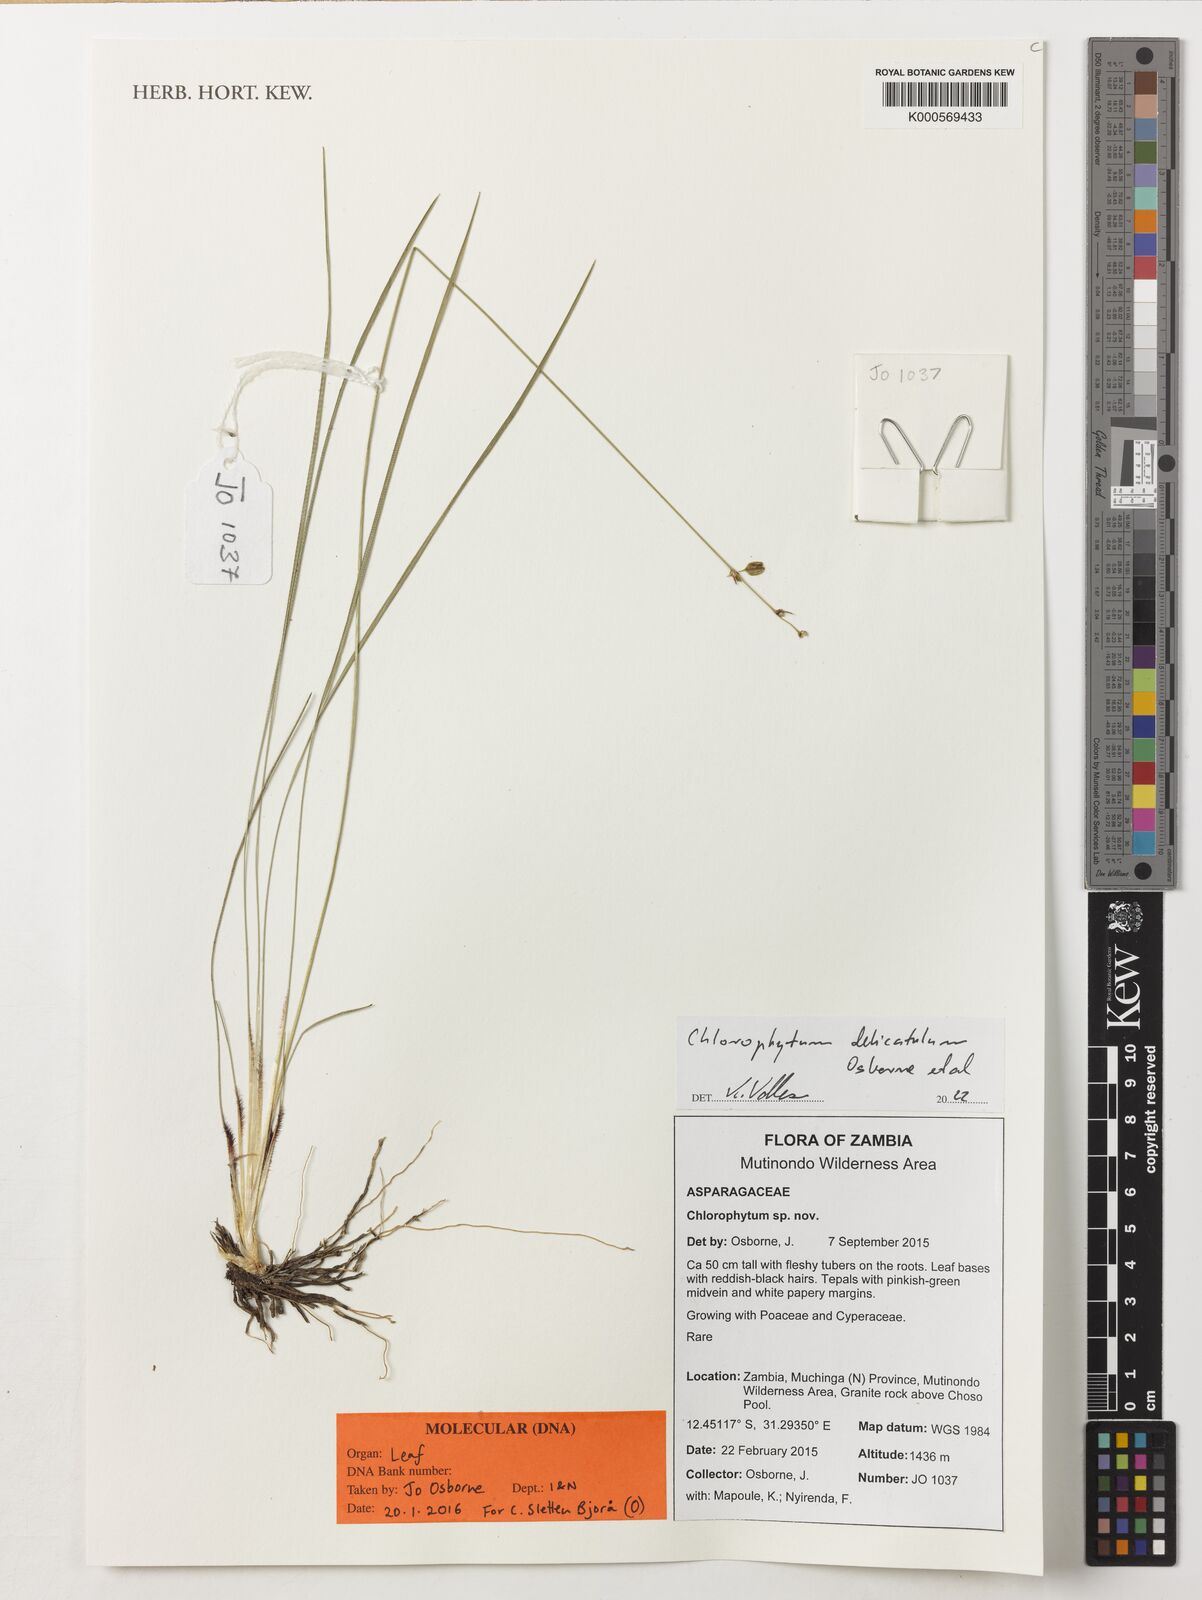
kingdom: Plantae
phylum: Tracheophyta
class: Liliopsida
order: Asparagales
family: Asparagaceae
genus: Chlorophytum
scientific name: Chlorophytum
